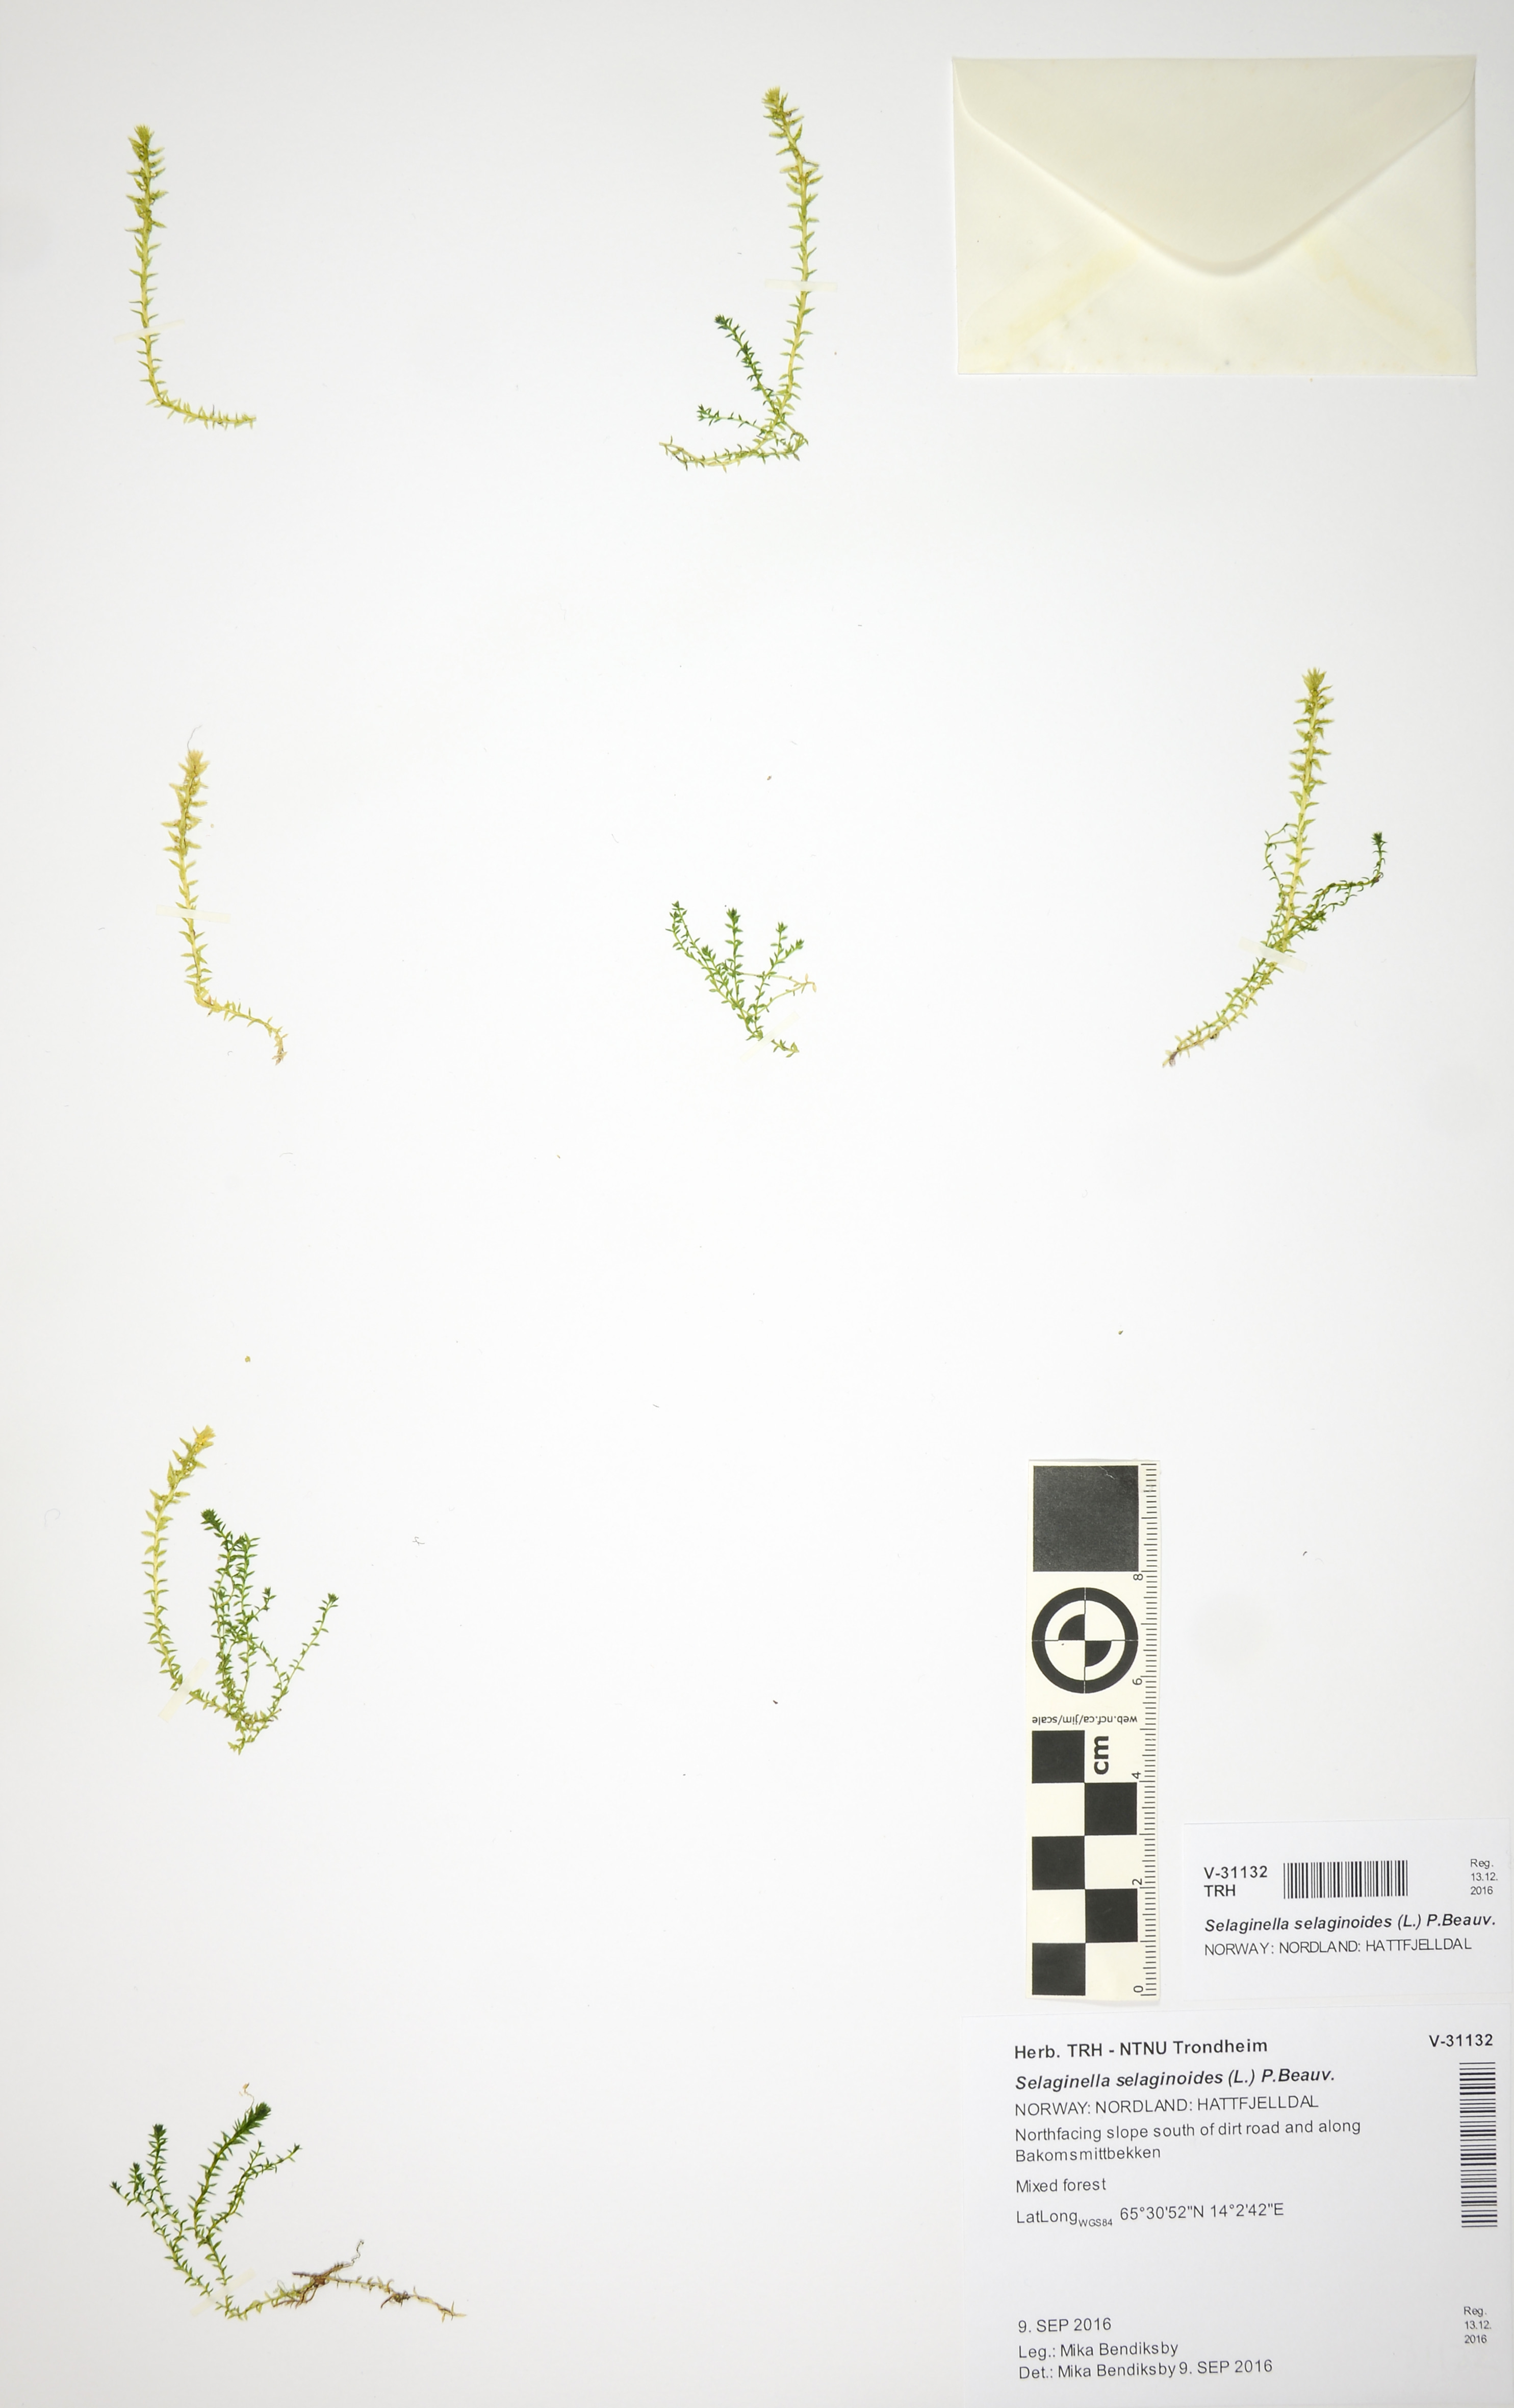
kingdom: Plantae
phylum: Tracheophyta
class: Lycopodiopsida
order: Selaginellales
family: Selaginellaceae
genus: Selaginella
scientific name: Selaginella selaginoides
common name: Prickly mountain-moss
